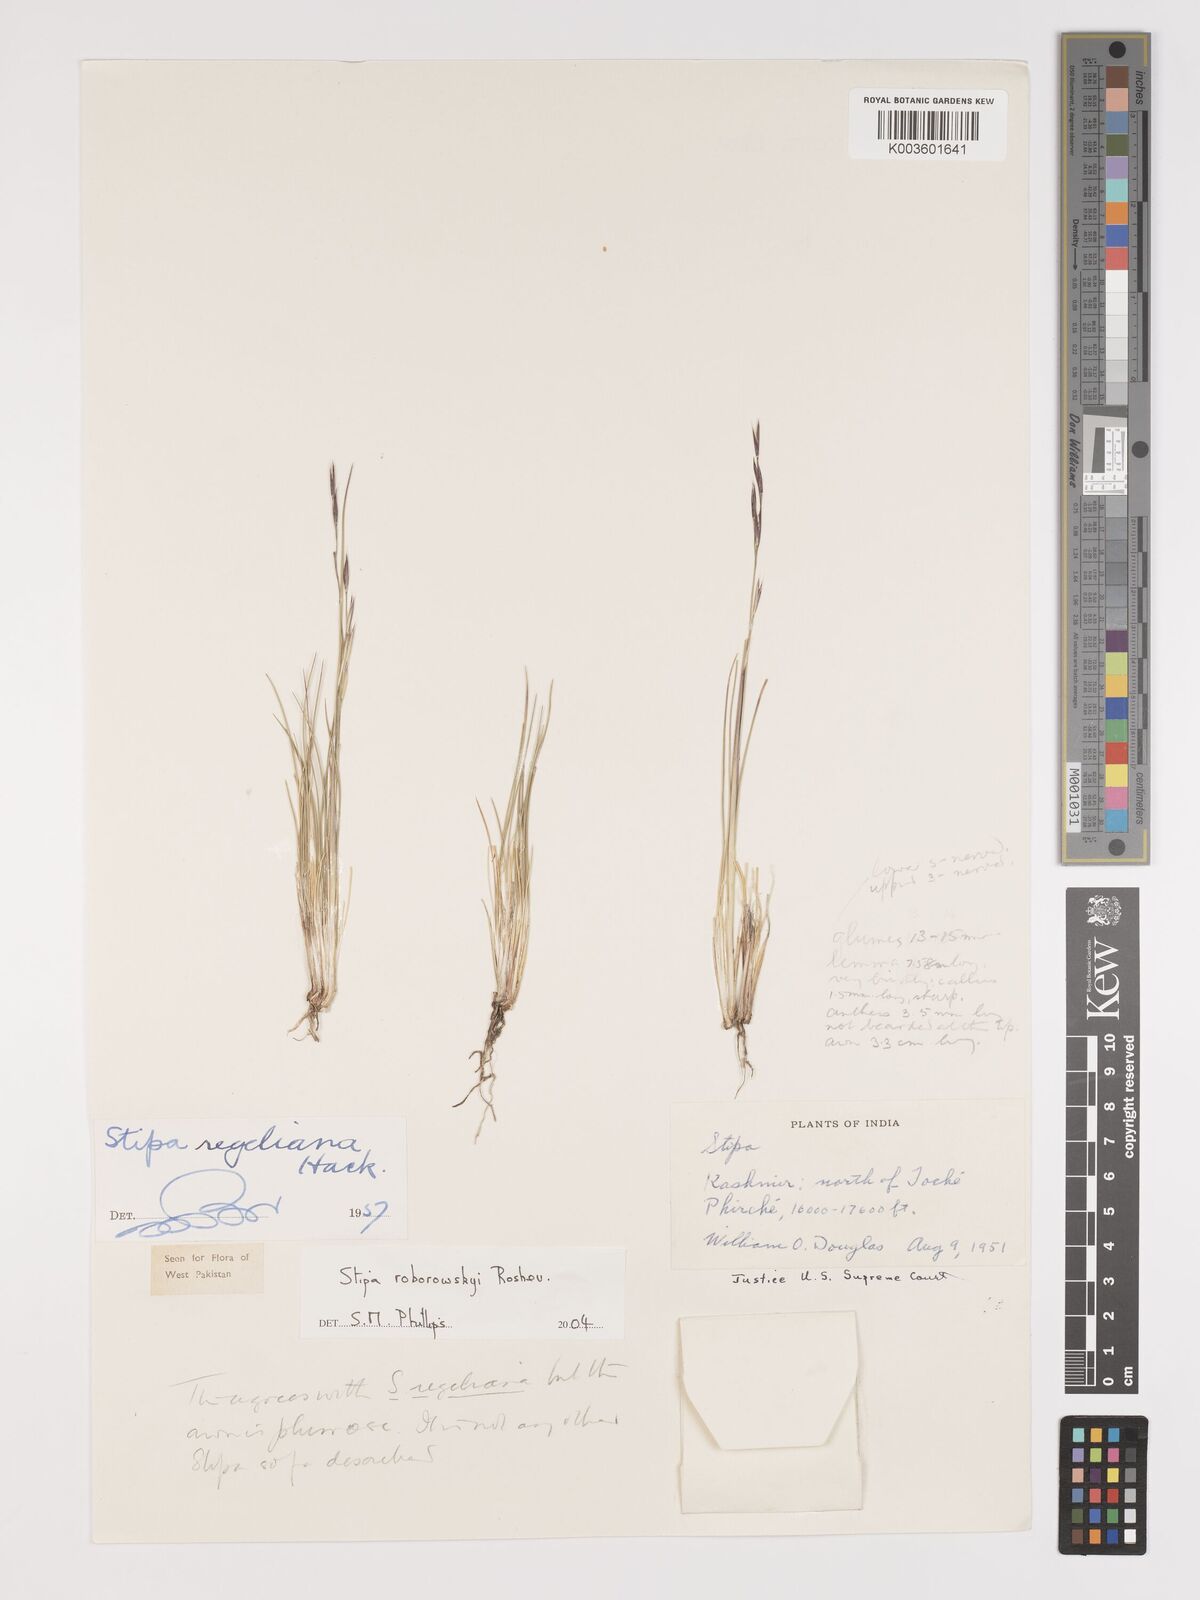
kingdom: Plantae
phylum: Tracheophyta
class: Liliopsida
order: Poales
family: Poaceae
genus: Stipa
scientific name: Stipa roborowskyi
